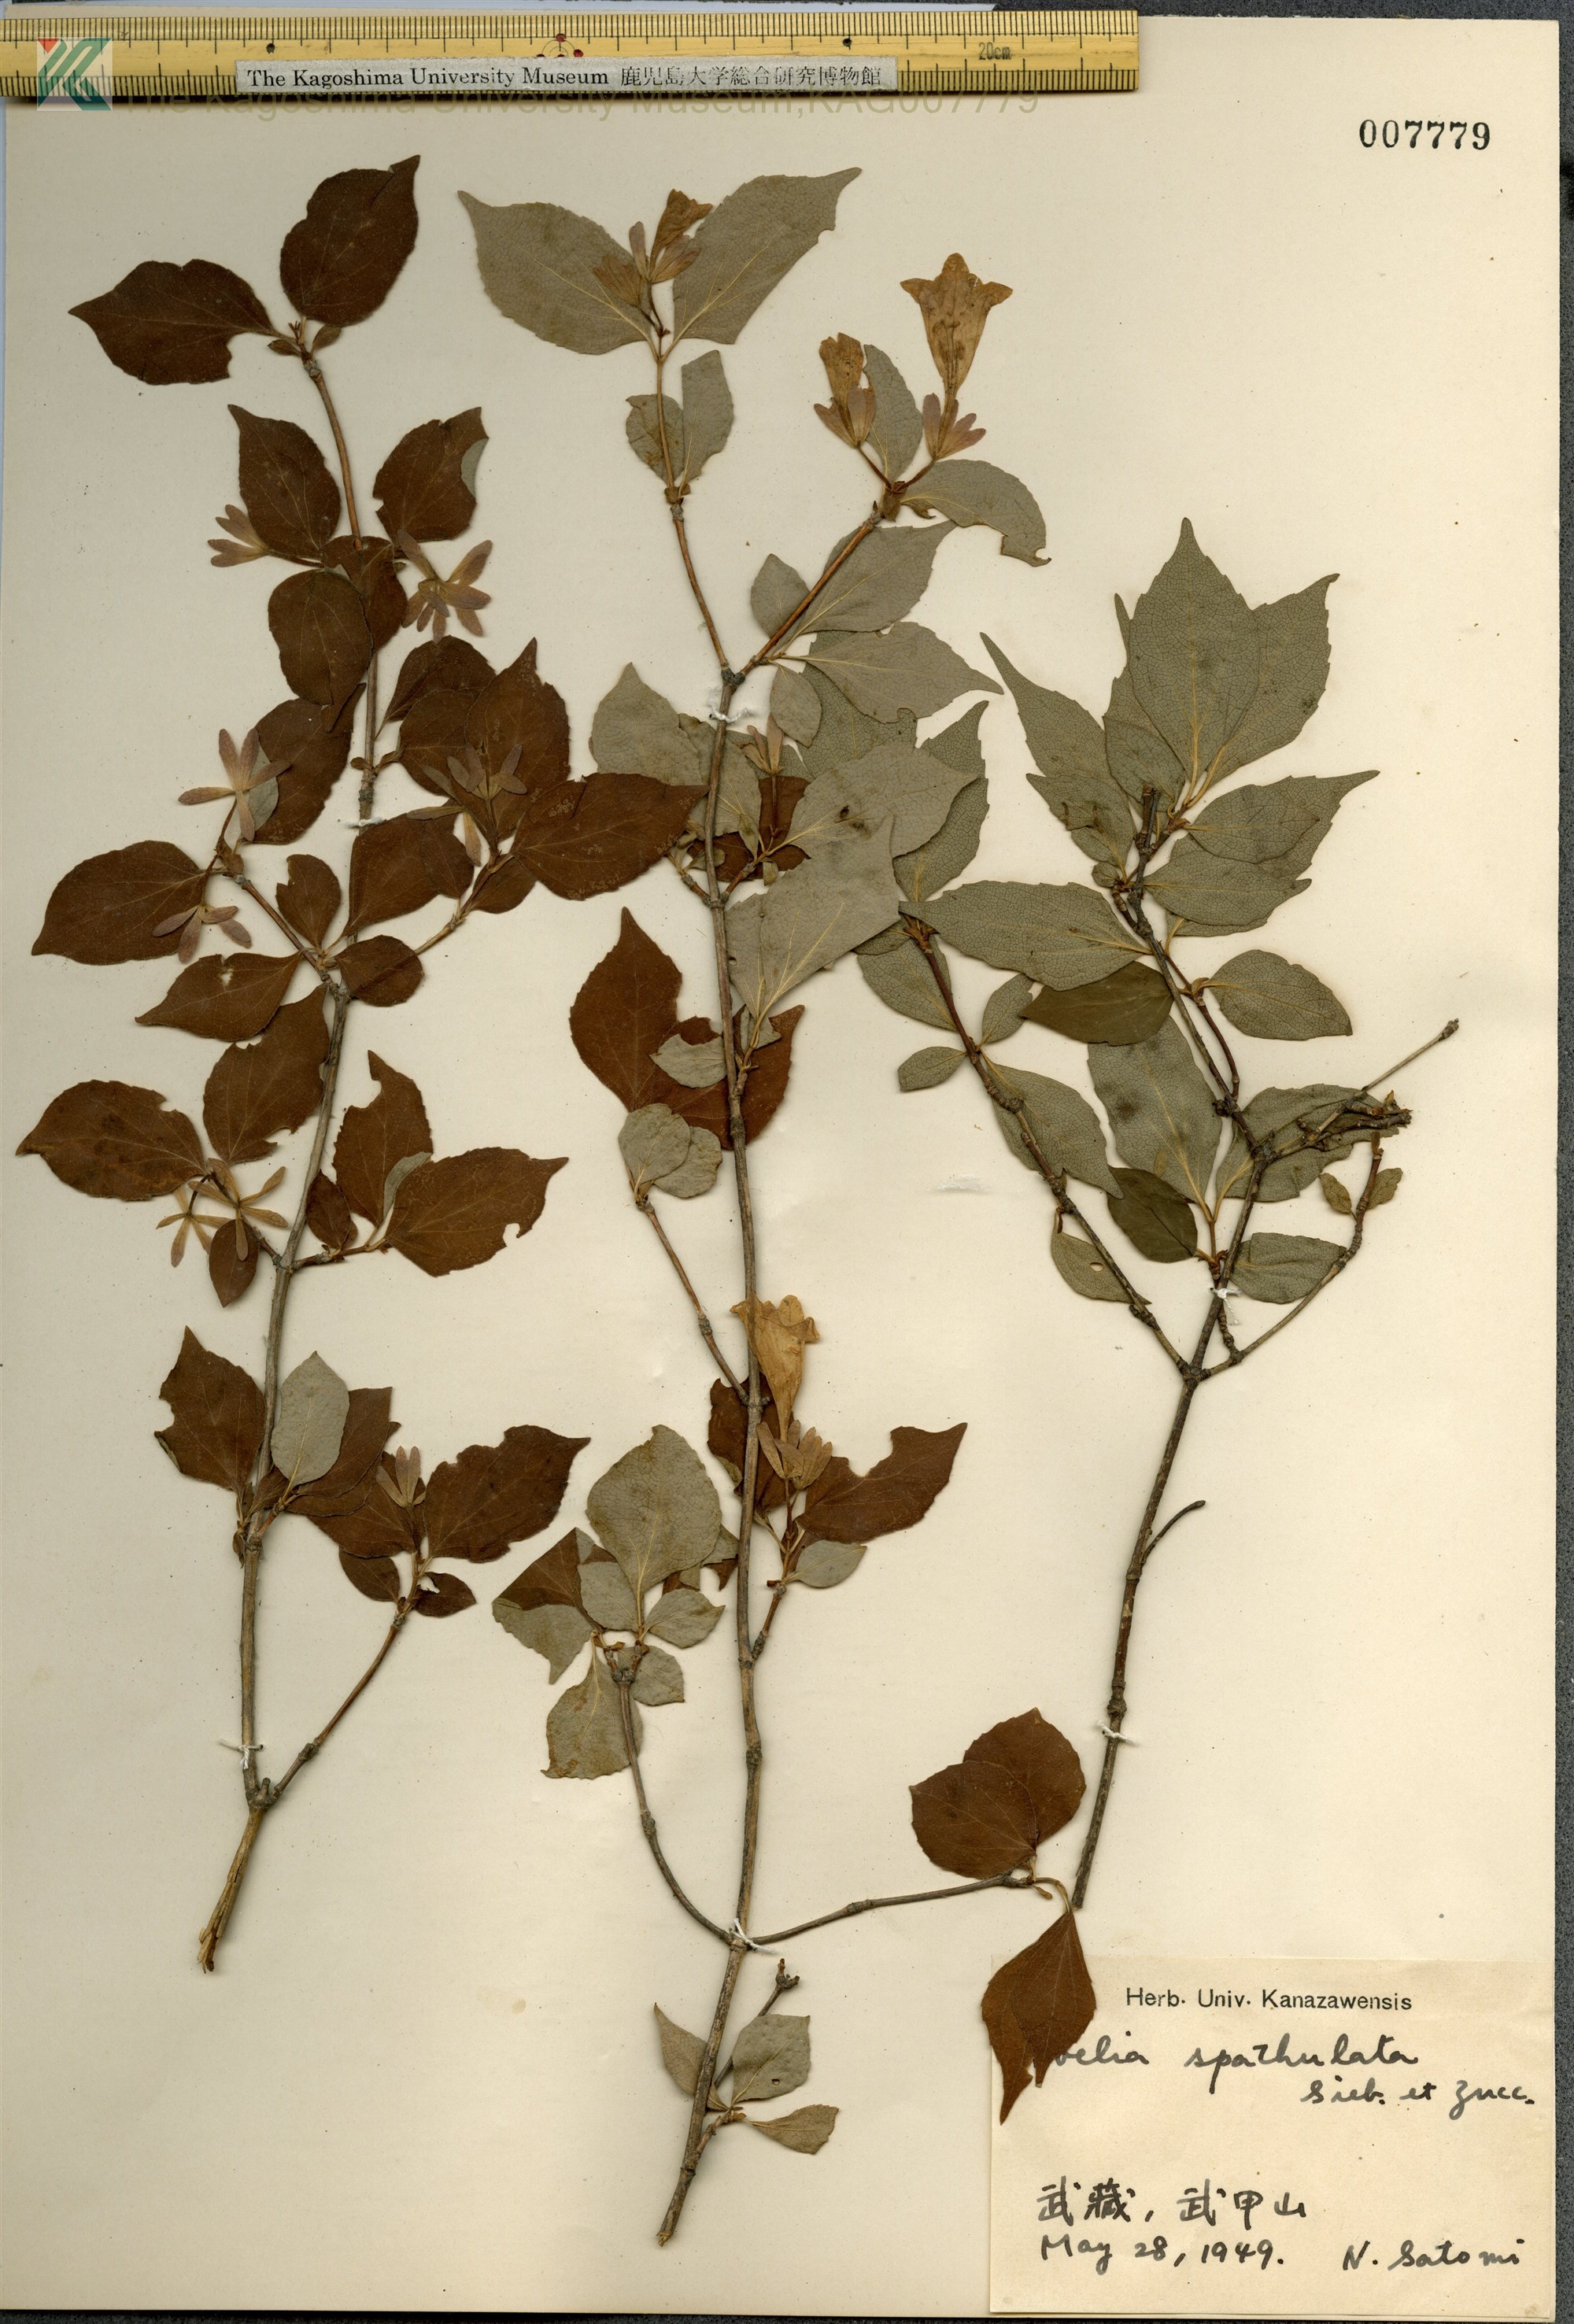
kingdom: Plantae
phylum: Tracheophyta
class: Magnoliopsida
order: Dipsacales
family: Caprifoliaceae
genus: Diabelia
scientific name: Diabelia spathulata
